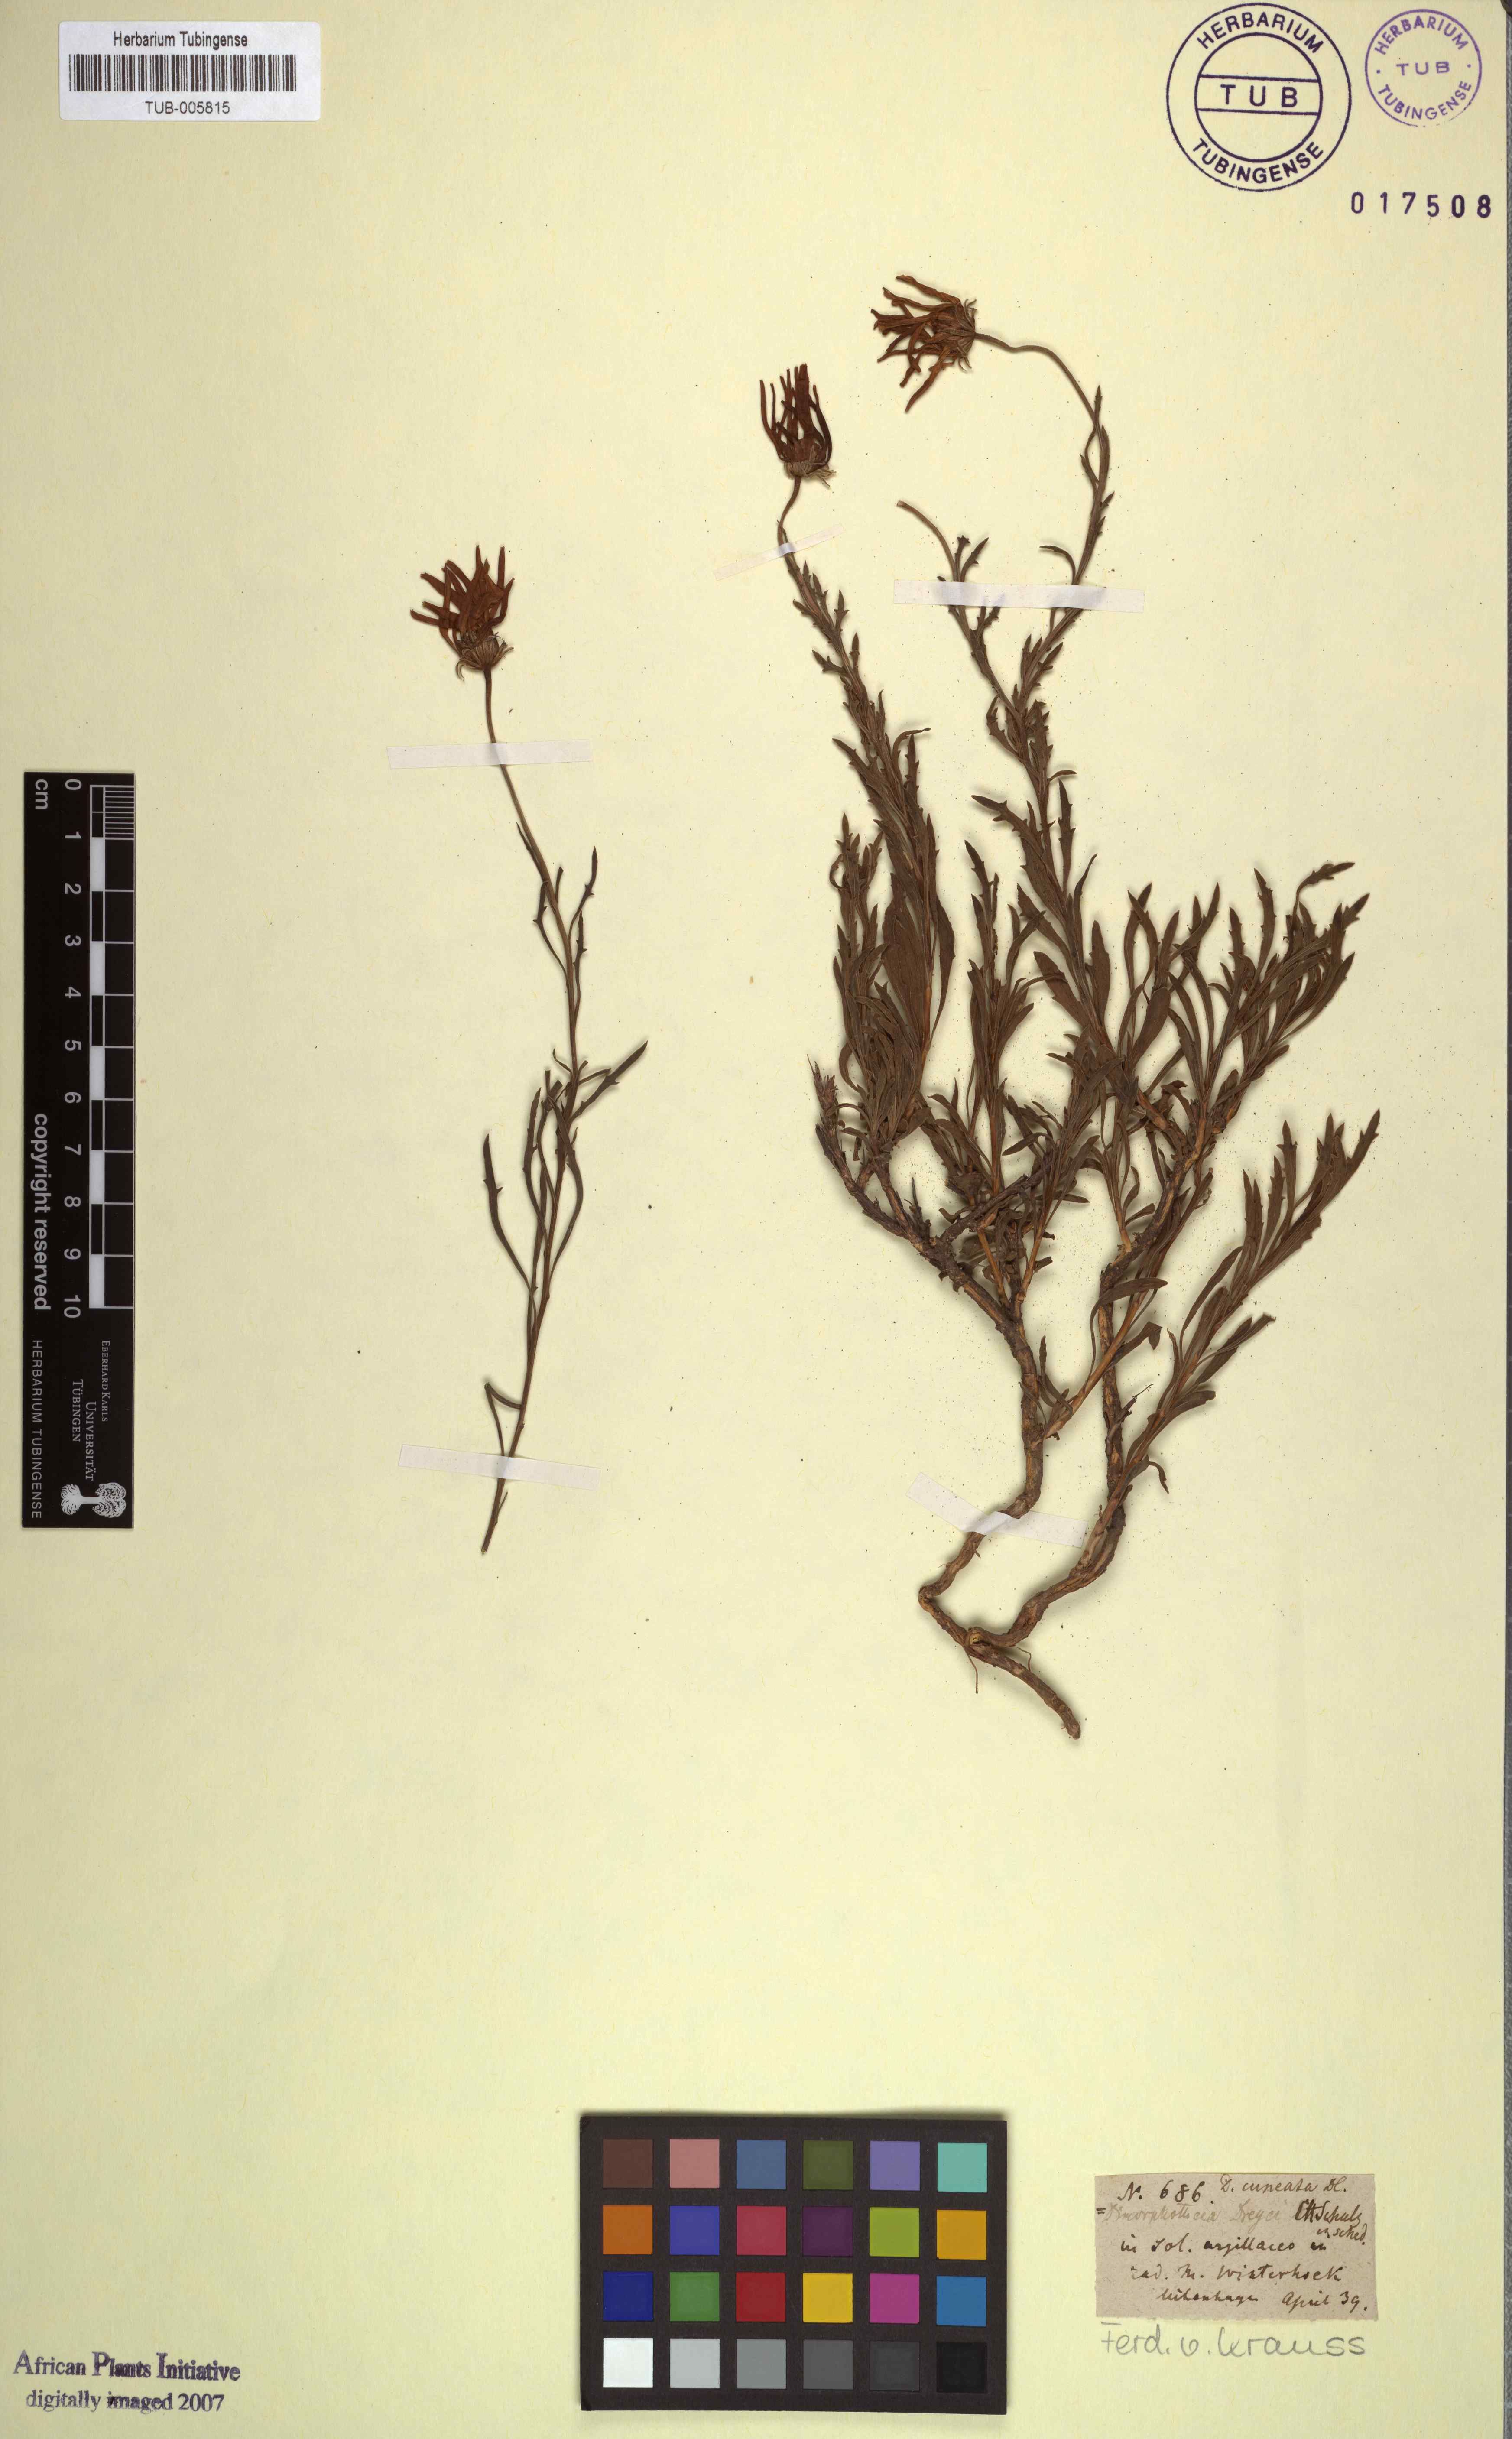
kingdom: Plantae
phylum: Tracheophyta
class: Magnoliopsida
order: Asterales
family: Asteraceae
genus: Dimorphotheca
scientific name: Dimorphotheca cuneata
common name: Daisy
